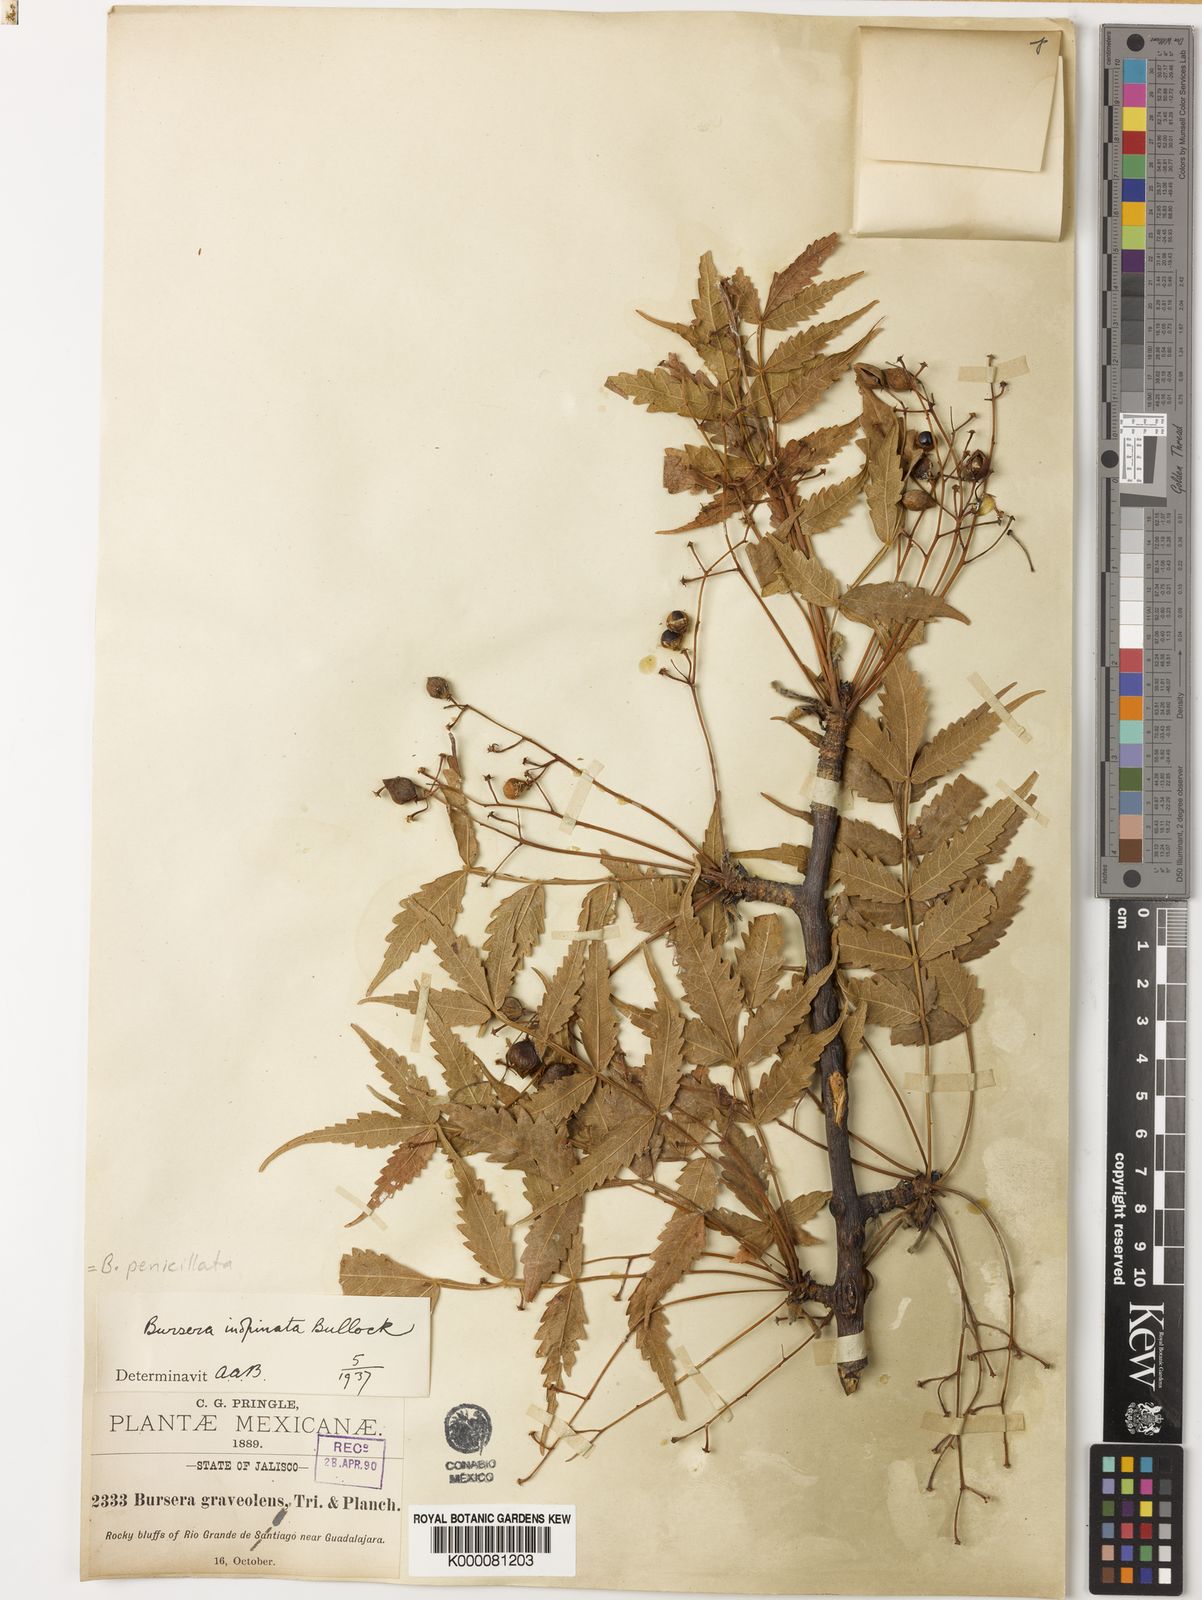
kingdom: Plantae
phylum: Tracheophyta
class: Magnoliopsida
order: Sapindales
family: Burseraceae
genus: Bursera
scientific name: Bursera penicillata
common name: Indian-lavender
